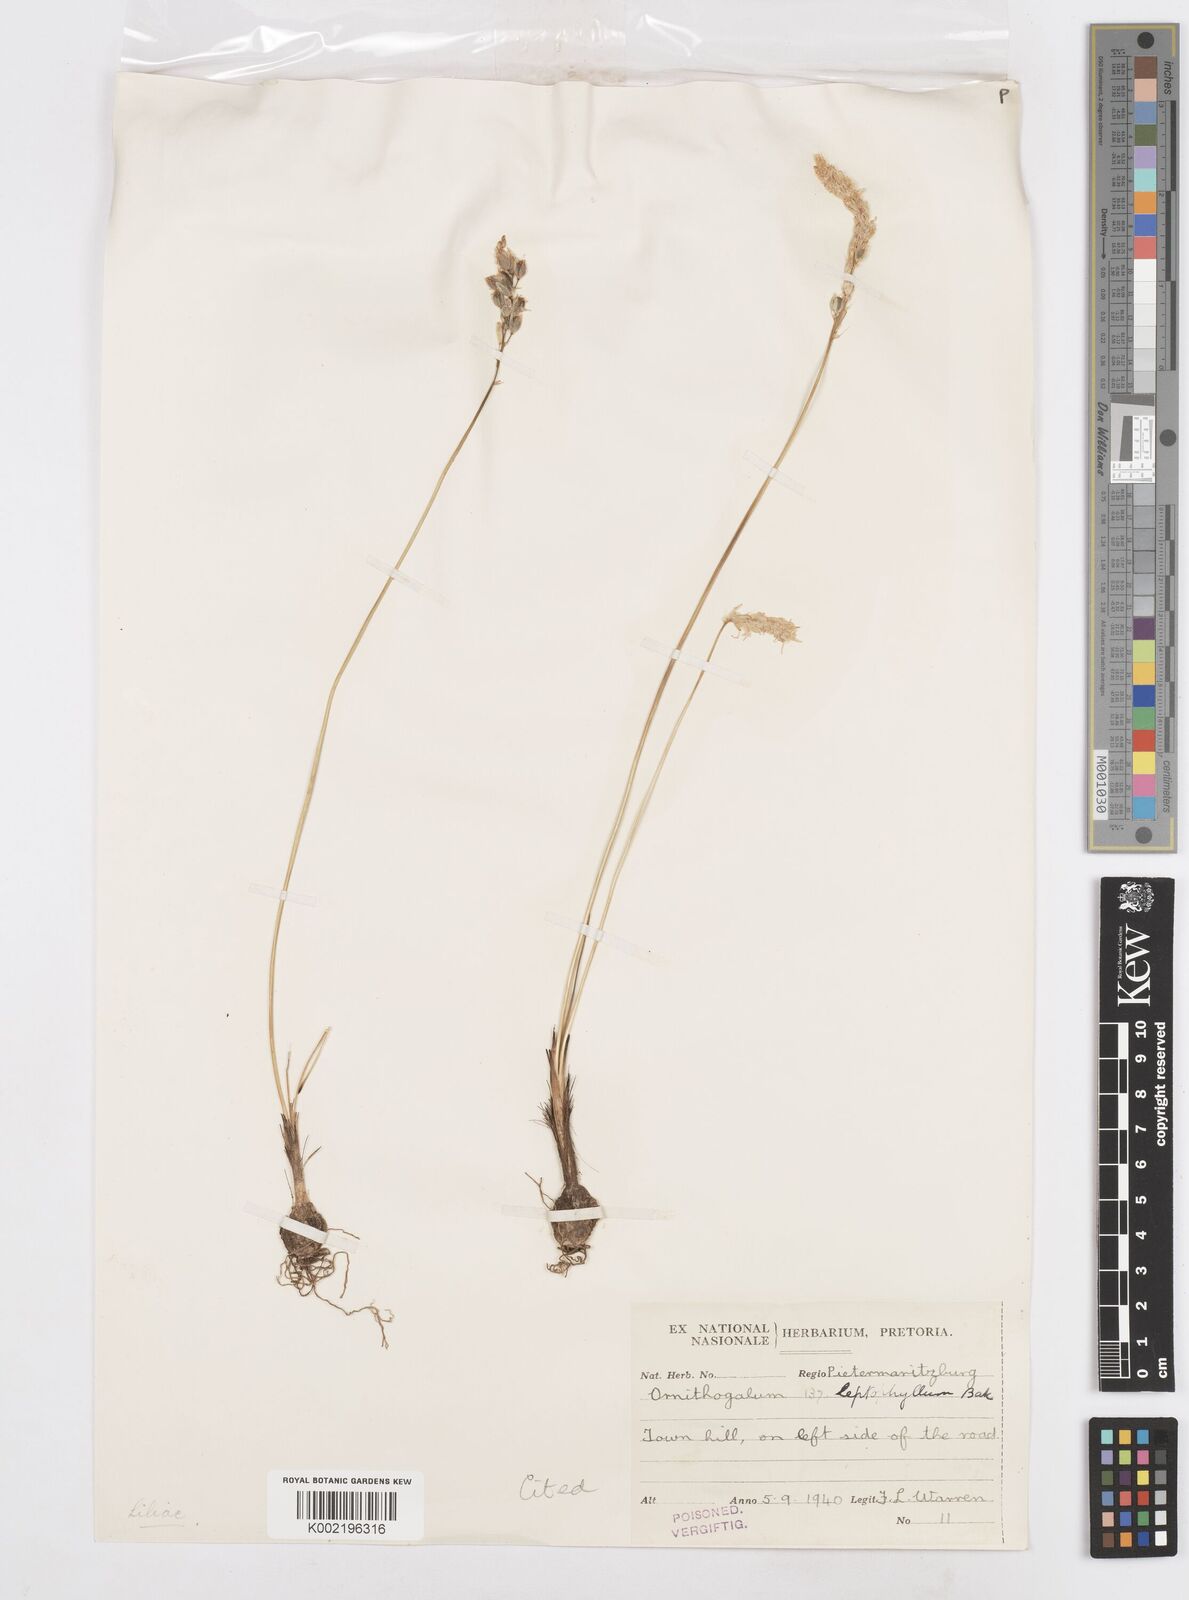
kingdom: Plantae
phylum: Tracheophyta
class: Liliopsida
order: Asparagales
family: Asparagaceae
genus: Ornithogalum
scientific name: Ornithogalum juncifolium
